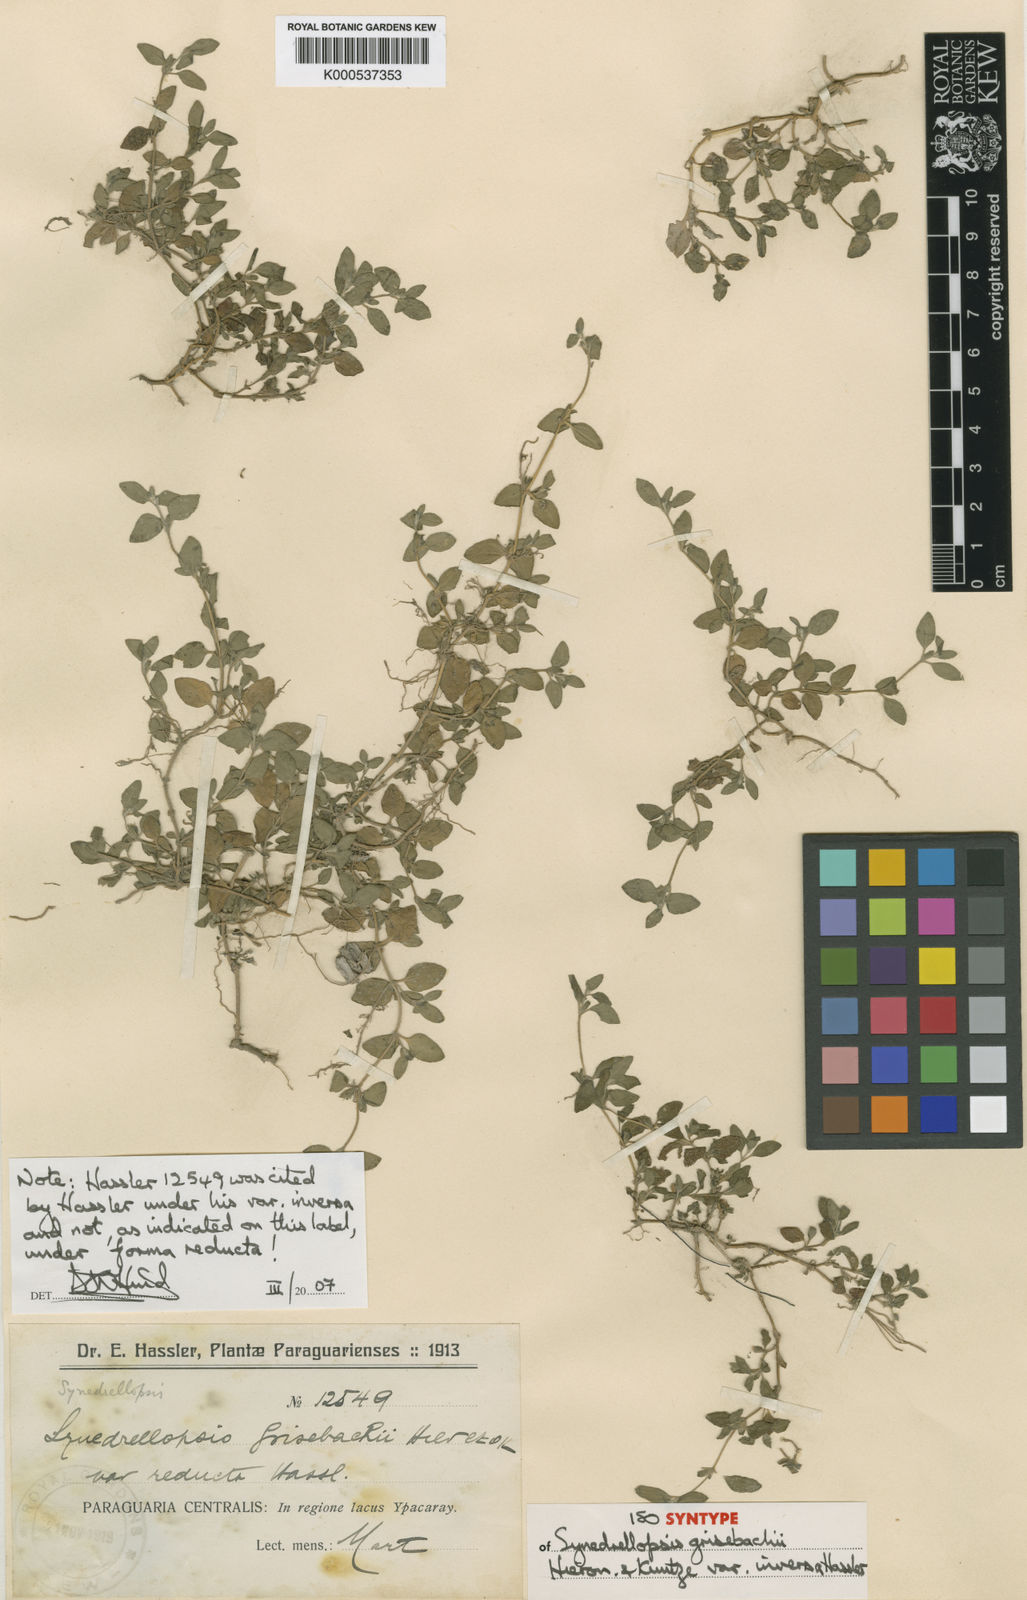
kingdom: Plantae
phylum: Tracheophyta
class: Magnoliopsida
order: Asterales
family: Asteraceae
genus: Synedrellopsis
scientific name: Synedrellopsis grisebachii
